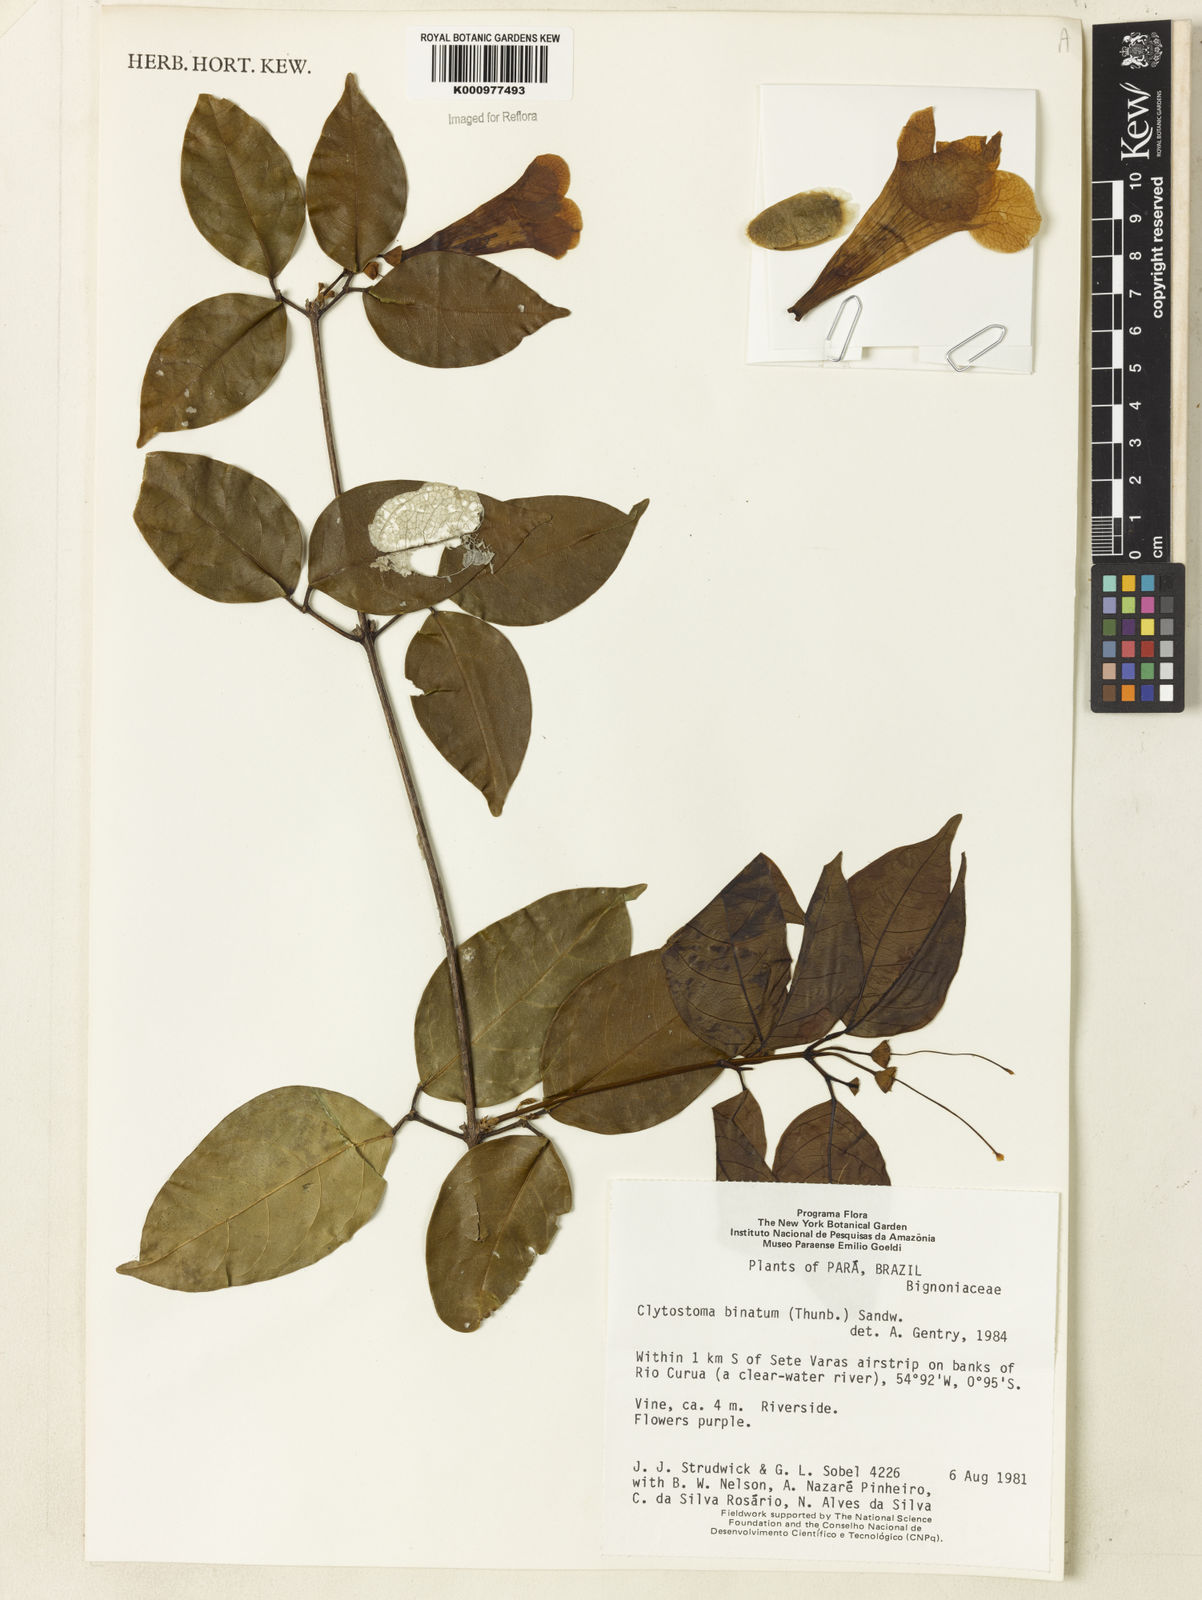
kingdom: Plantae
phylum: Tracheophyta
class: Magnoliopsida
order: Lamiales
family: Bignoniaceae
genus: Bignonia
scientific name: Bignonia binata
